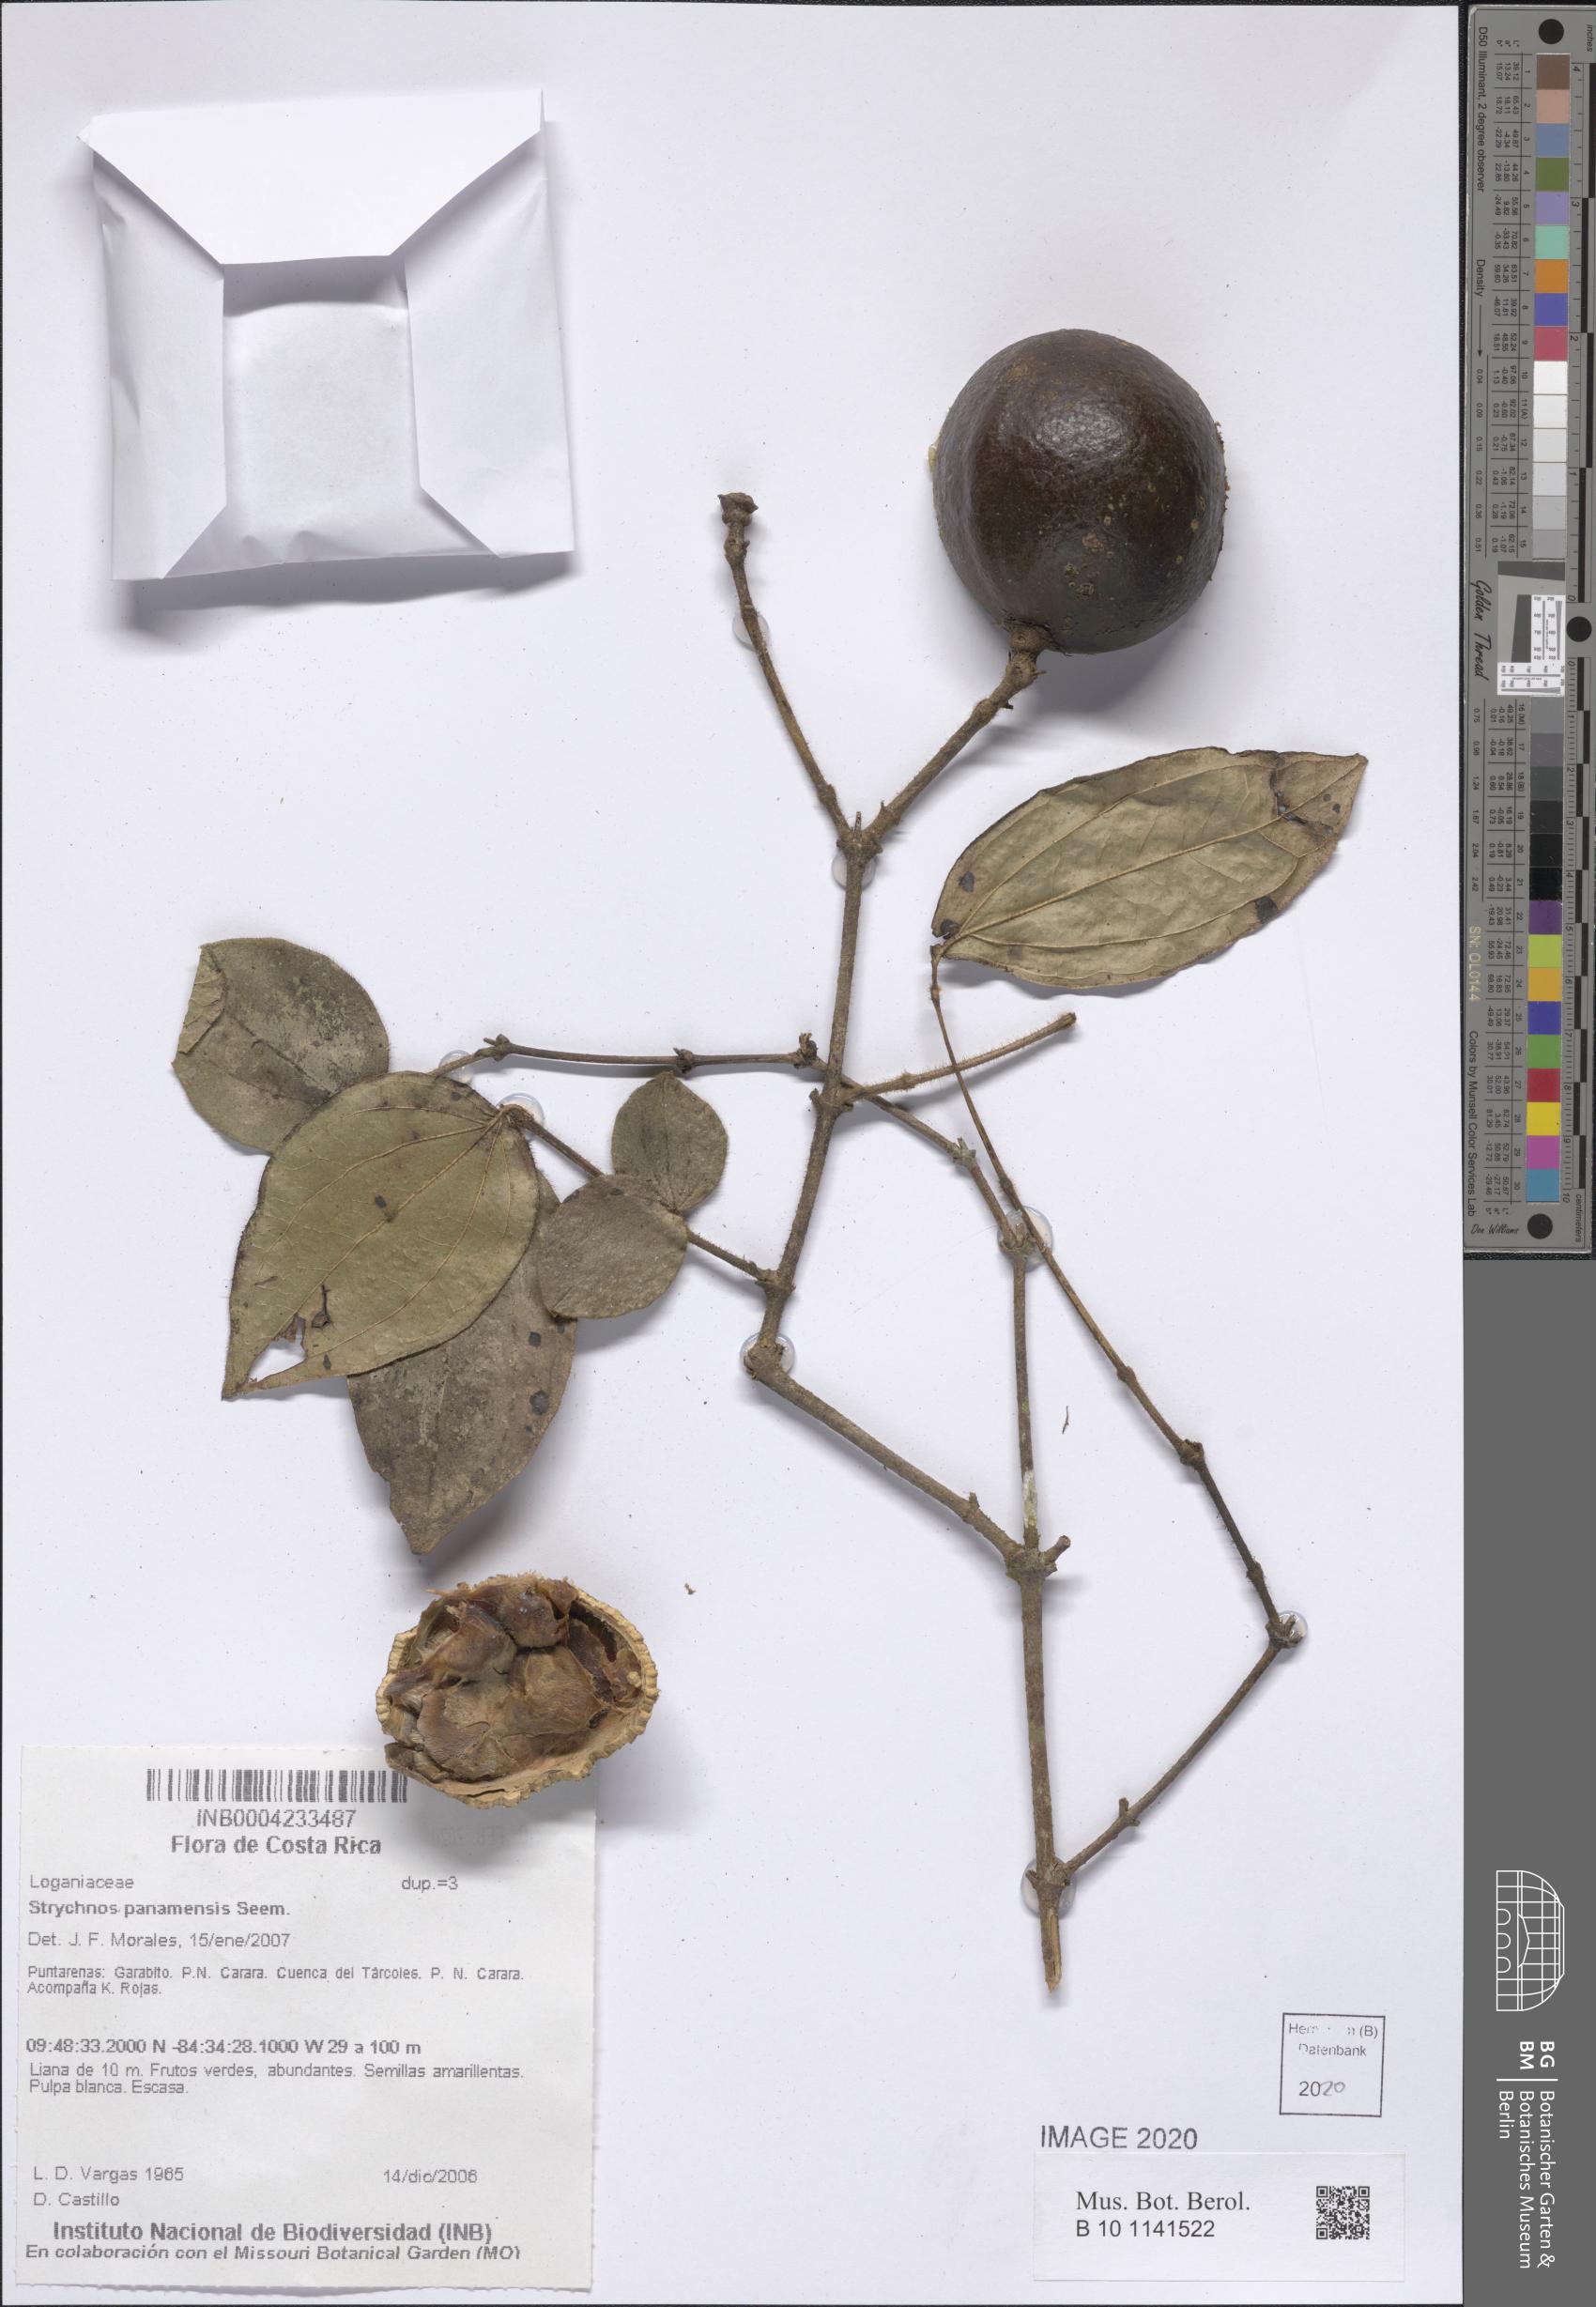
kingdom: Plantae
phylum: Tracheophyta
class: Magnoliopsida
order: Gentianales
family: Loganiaceae
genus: Strychnos
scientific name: Strychnos panamensis
